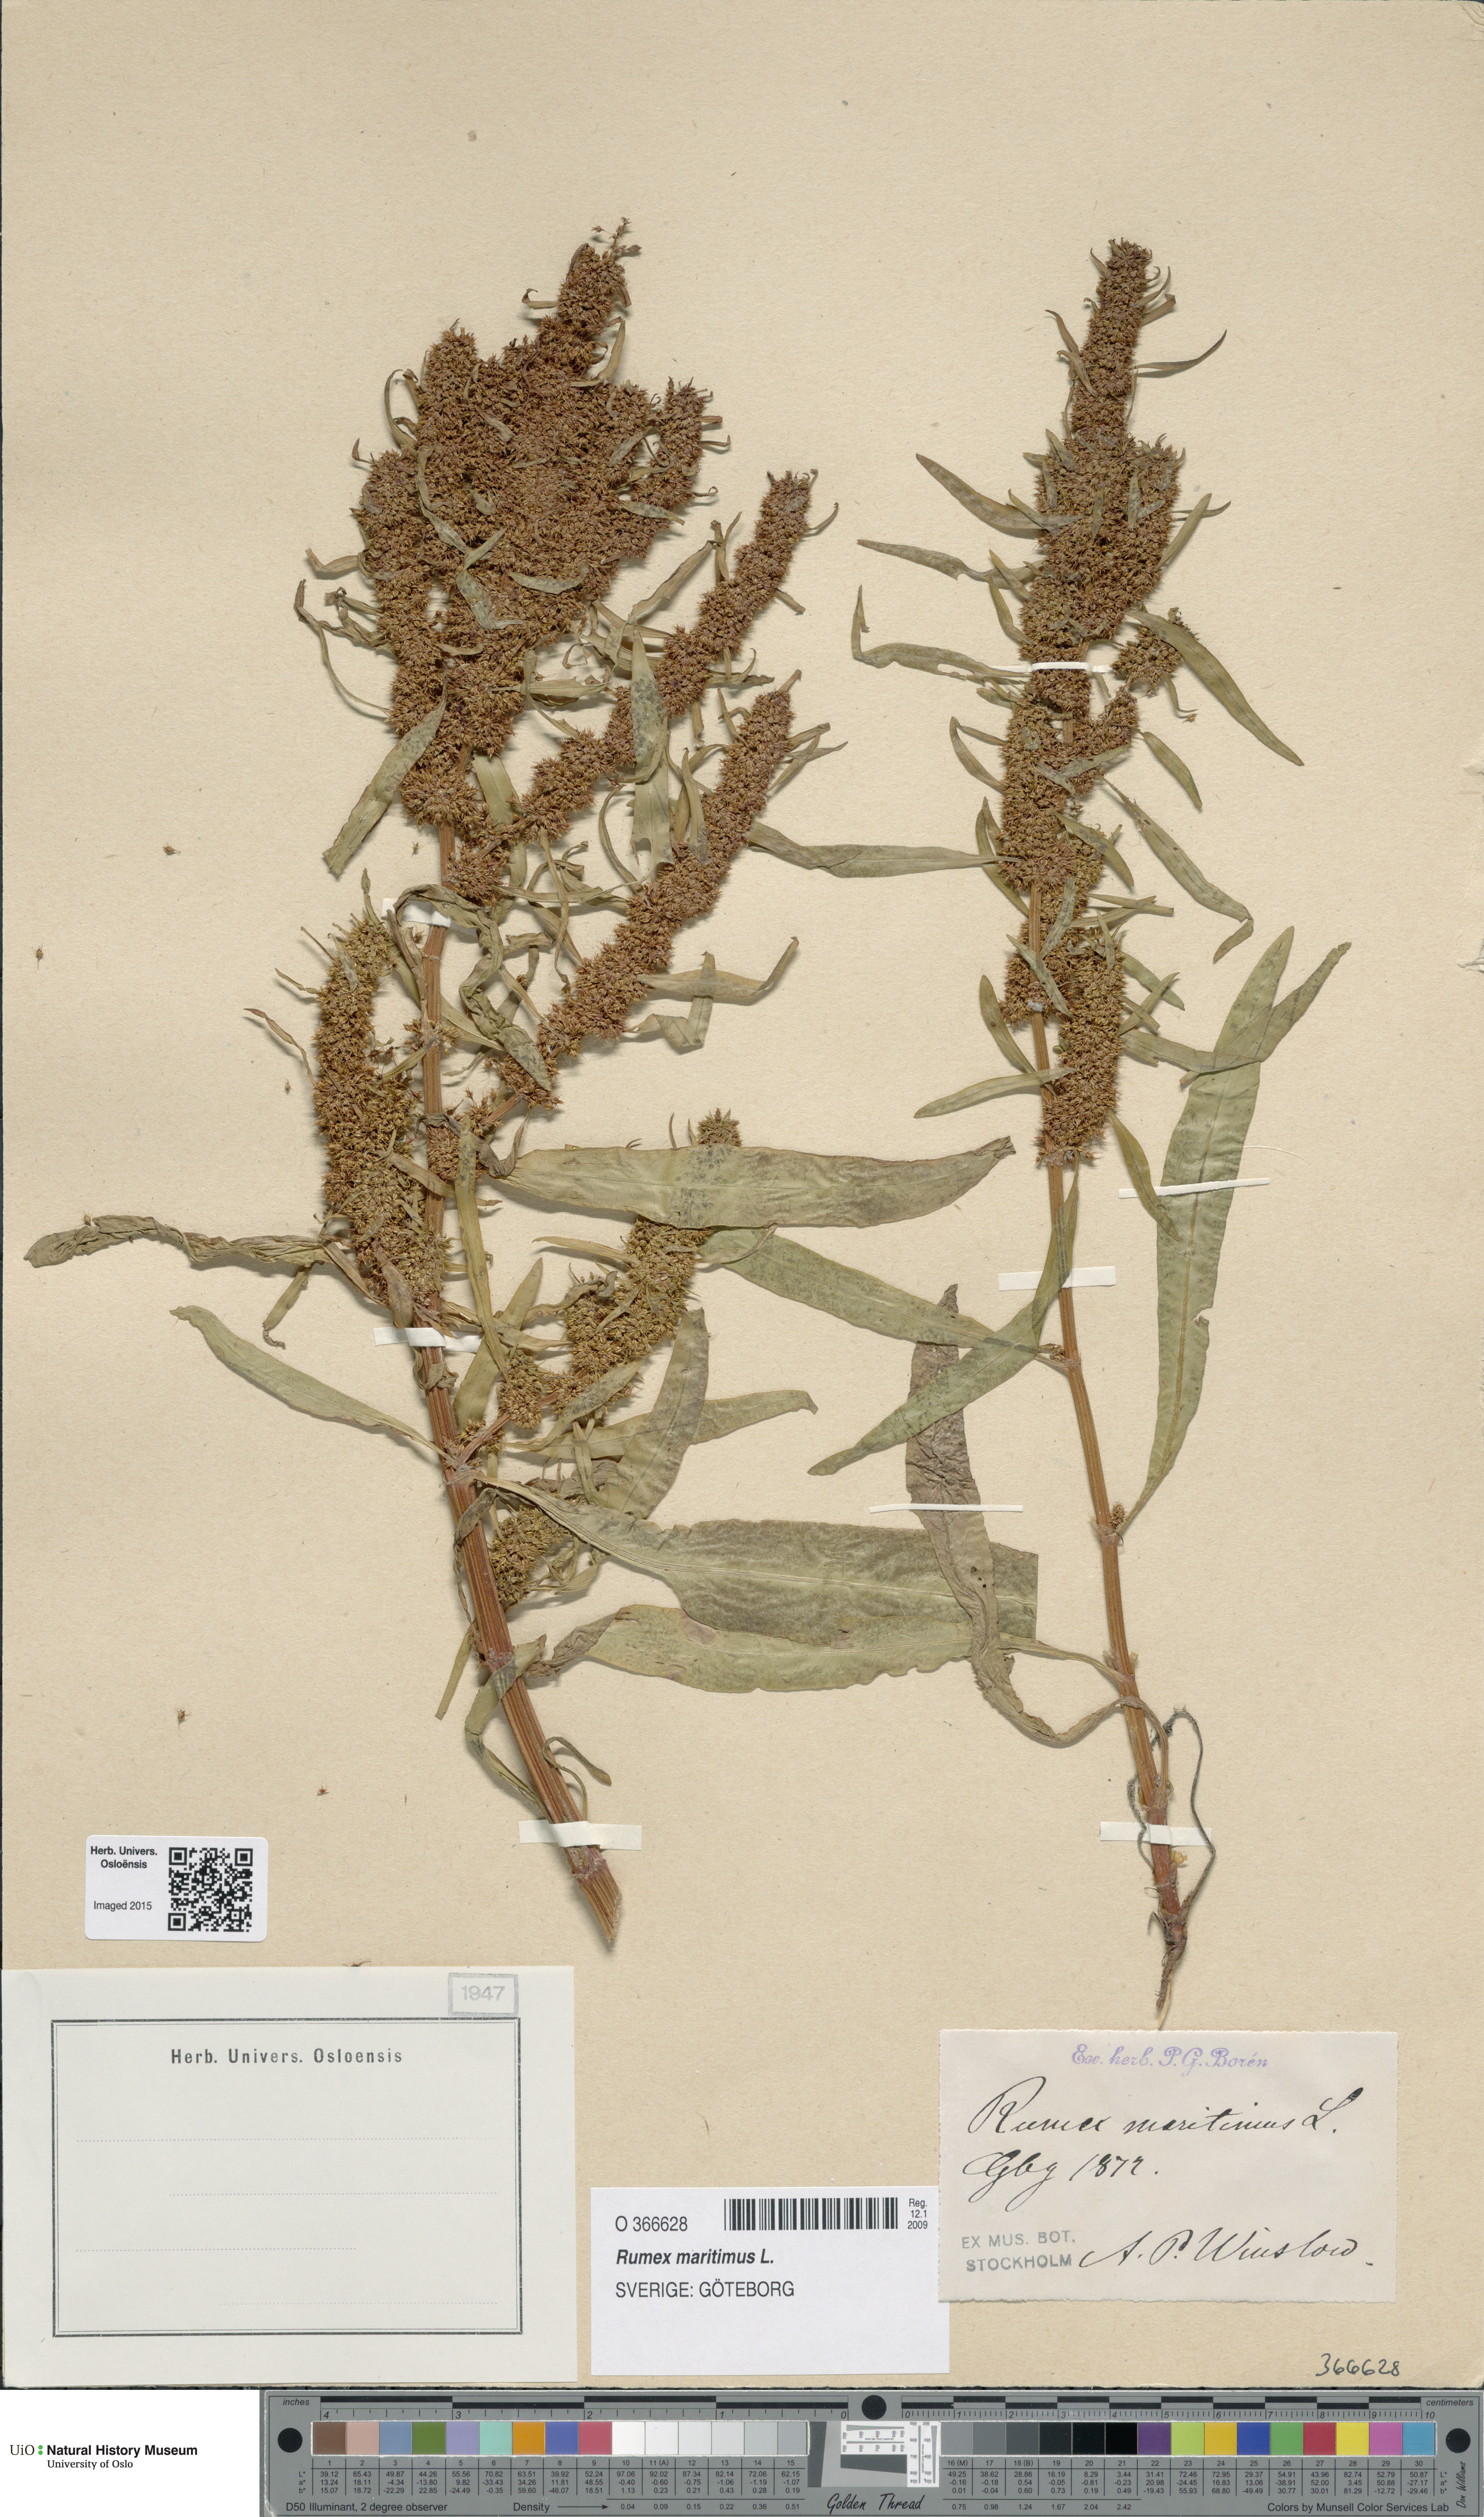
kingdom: Plantae
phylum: Tracheophyta
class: Magnoliopsida
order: Caryophyllales
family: Polygonaceae
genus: Rumex
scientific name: Rumex maritimus
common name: Golden dock
